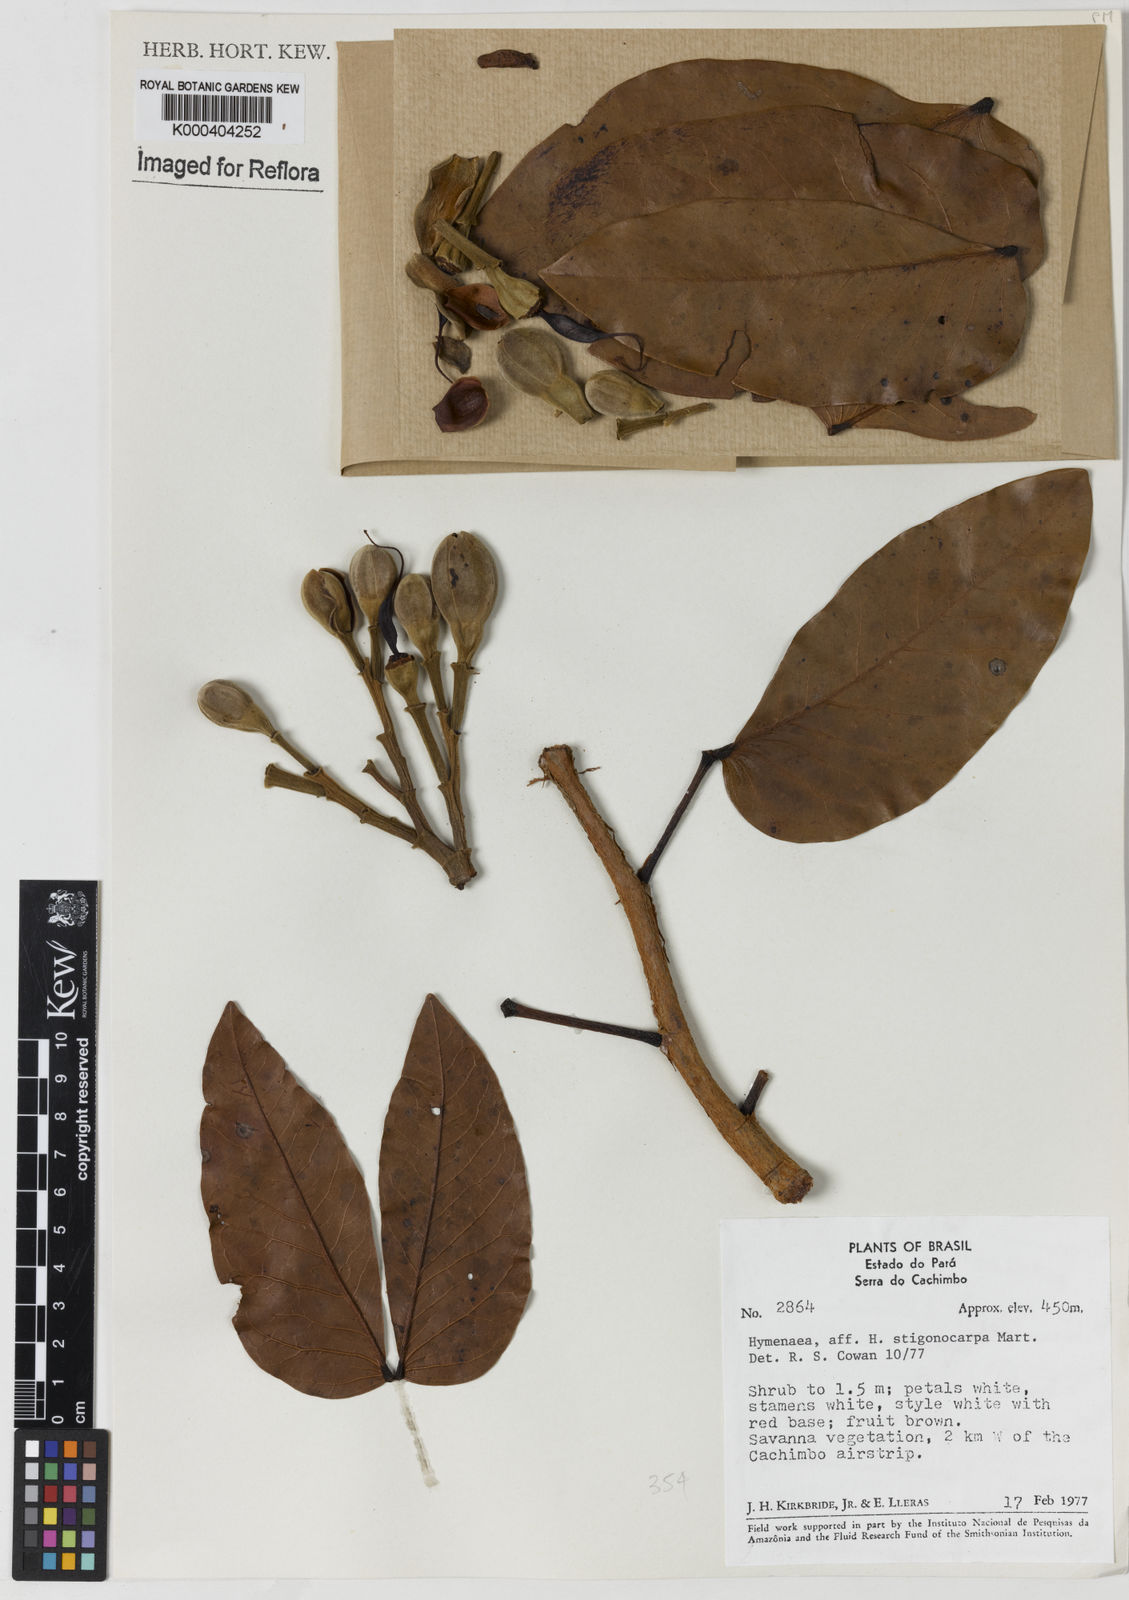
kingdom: Plantae
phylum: Tracheophyta
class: Magnoliopsida
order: Fabales
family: Fabaceae
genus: Hymenaea
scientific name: Hymenaea stigonocarpa
